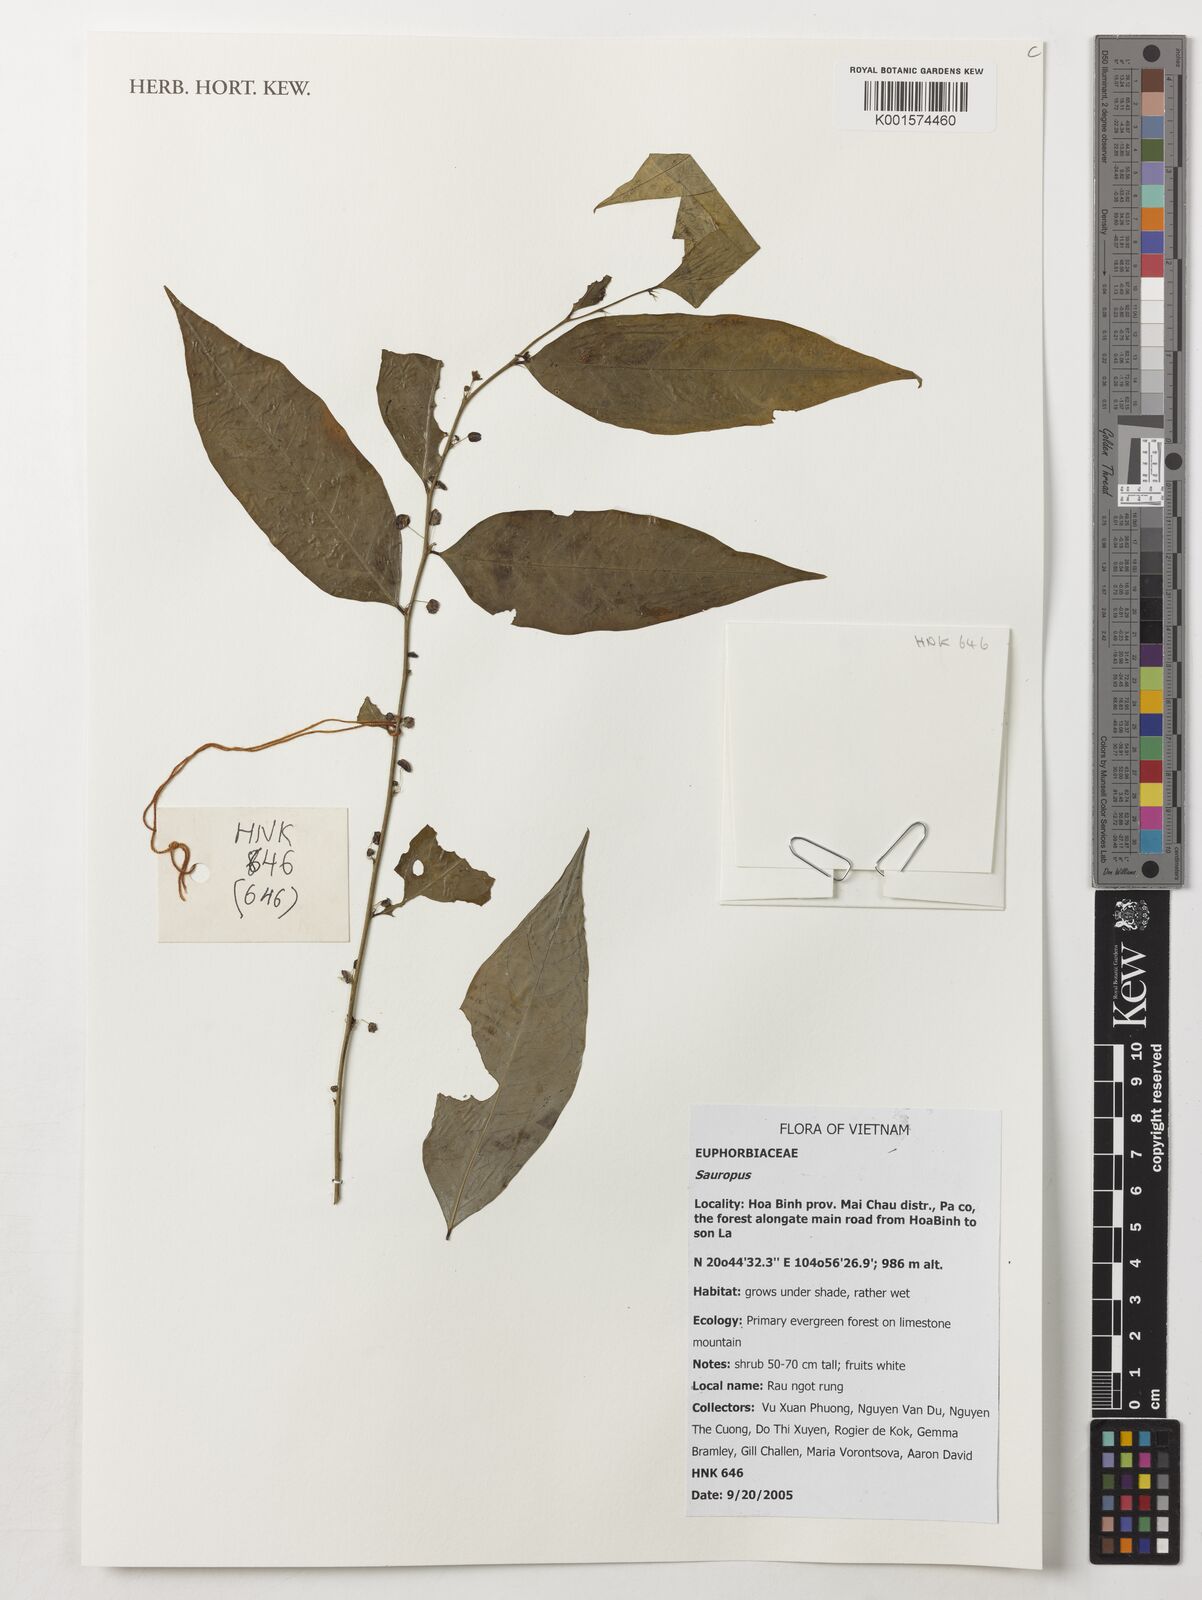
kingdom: Animalia
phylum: Chordata
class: Amphibia
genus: Sauropus
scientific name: Sauropus
